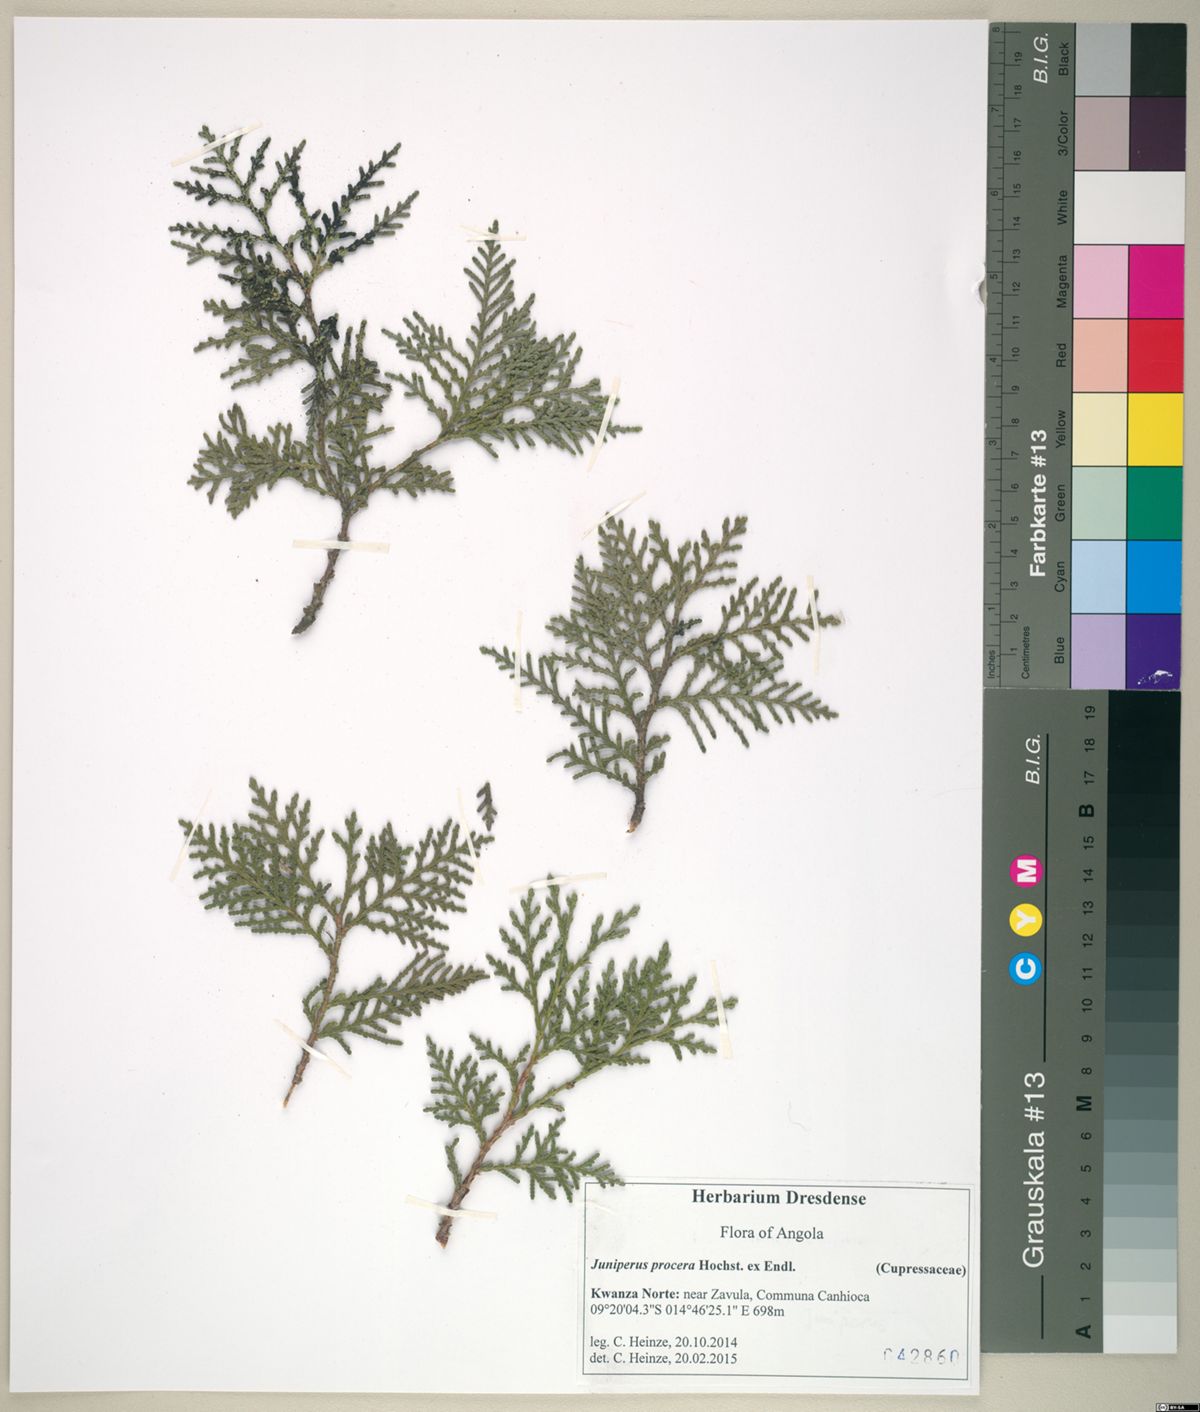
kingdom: Plantae
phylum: Tracheophyta
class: Pinopsida
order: Pinales
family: Cupressaceae
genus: Juniperus
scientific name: Juniperus procera
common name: African juniper
